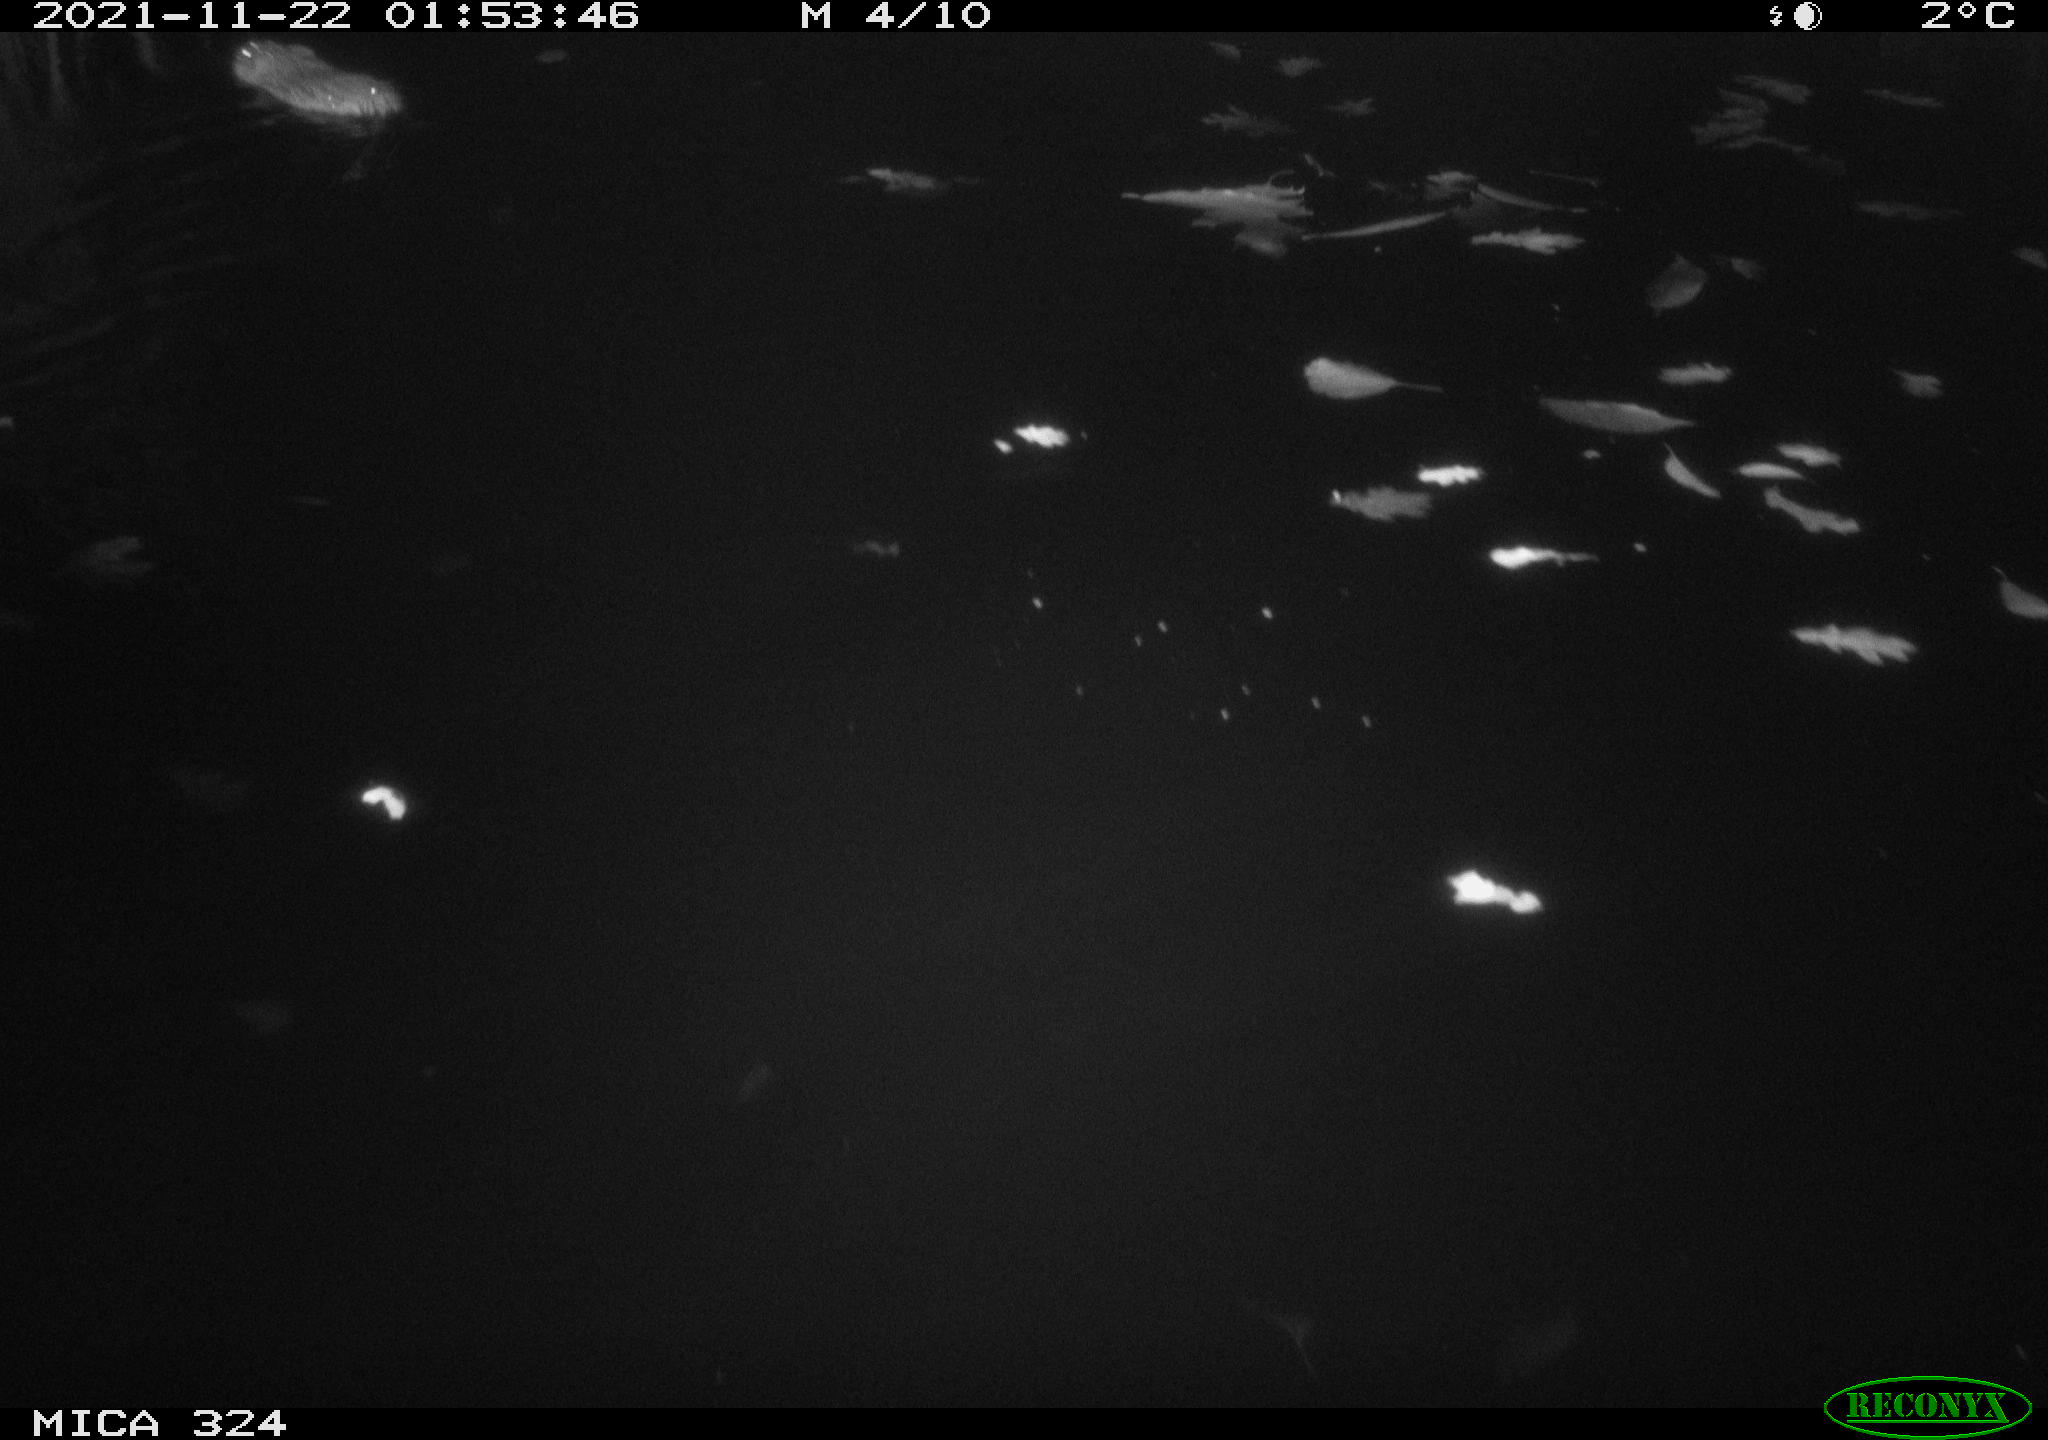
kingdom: Animalia
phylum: Chordata
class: Mammalia
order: Rodentia
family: Cricetidae
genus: Ondatra
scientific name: Ondatra zibethicus
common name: Muskrat
